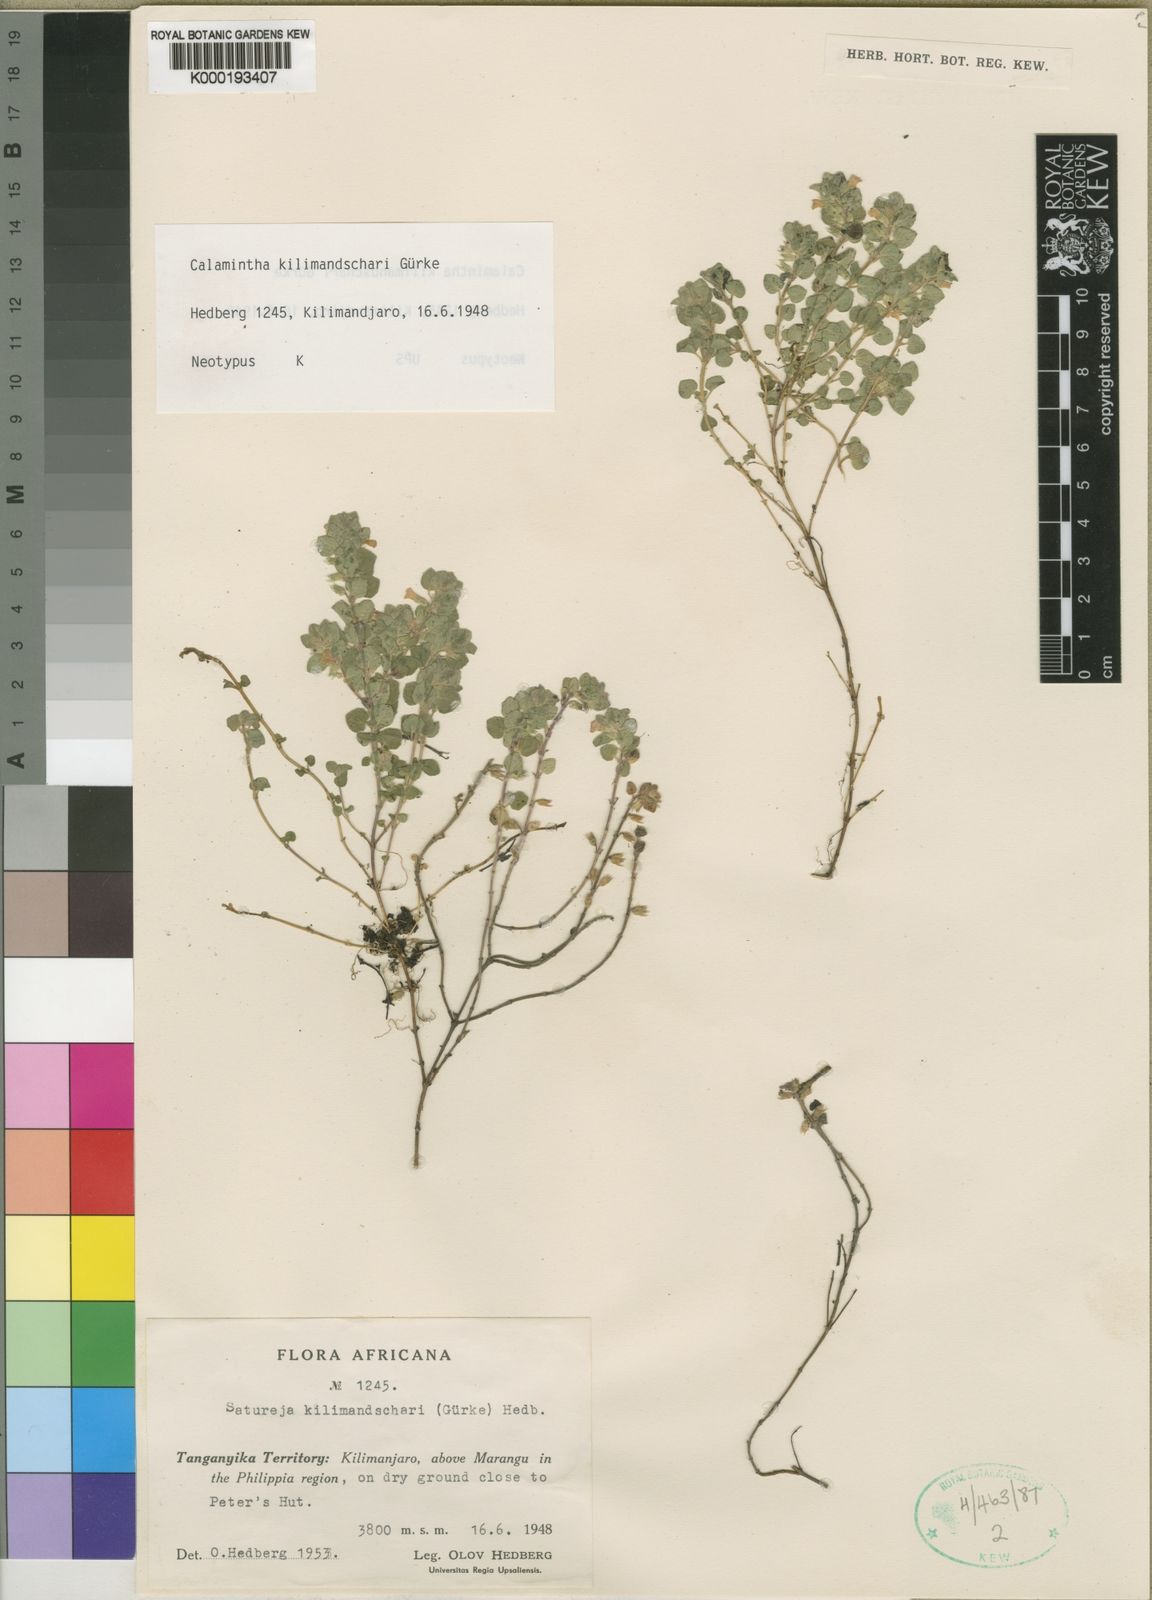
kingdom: Plantae
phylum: Tracheophyta
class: Magnoliopsida
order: Lamiales
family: Lamiaceae
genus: Clinopodium
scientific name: Clinopodium
